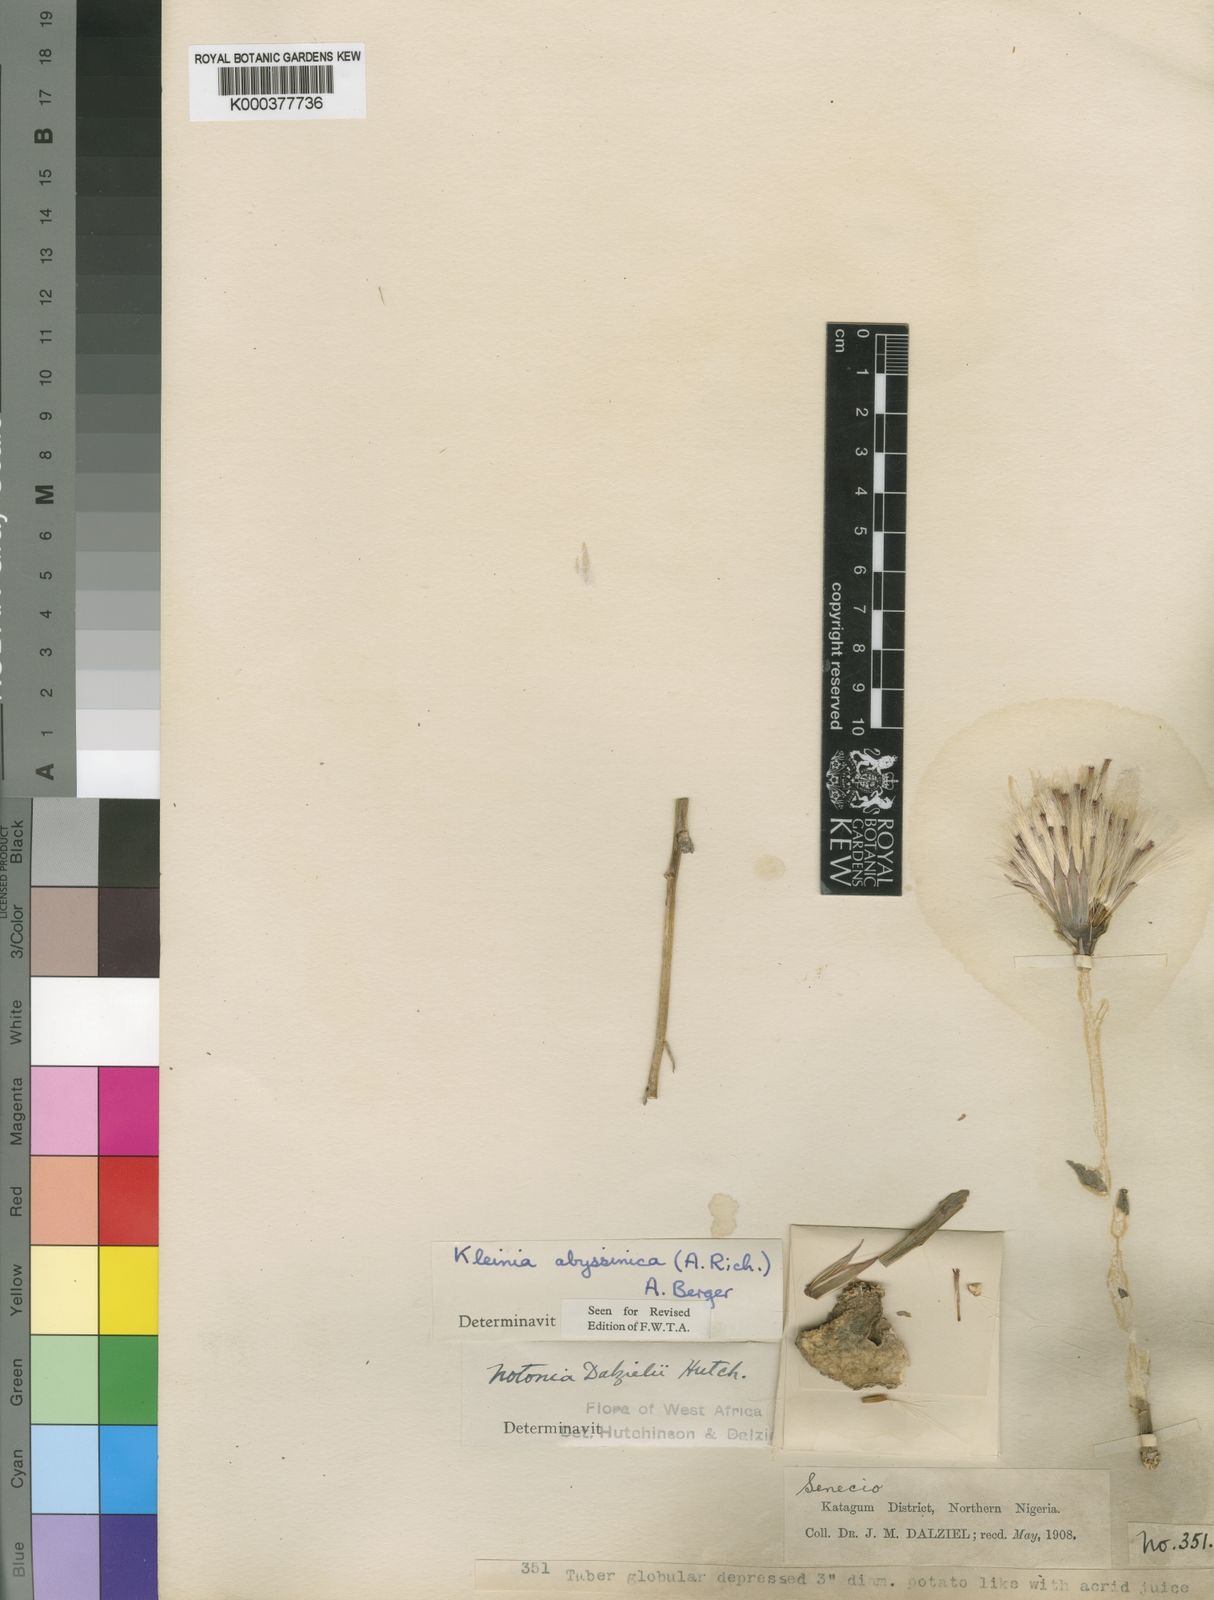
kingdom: Plantae
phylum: Tracheophyta
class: Magnoliopsida
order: Asterales
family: Asteraceae
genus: Kleinia
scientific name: Kleinia schweinfurthii
